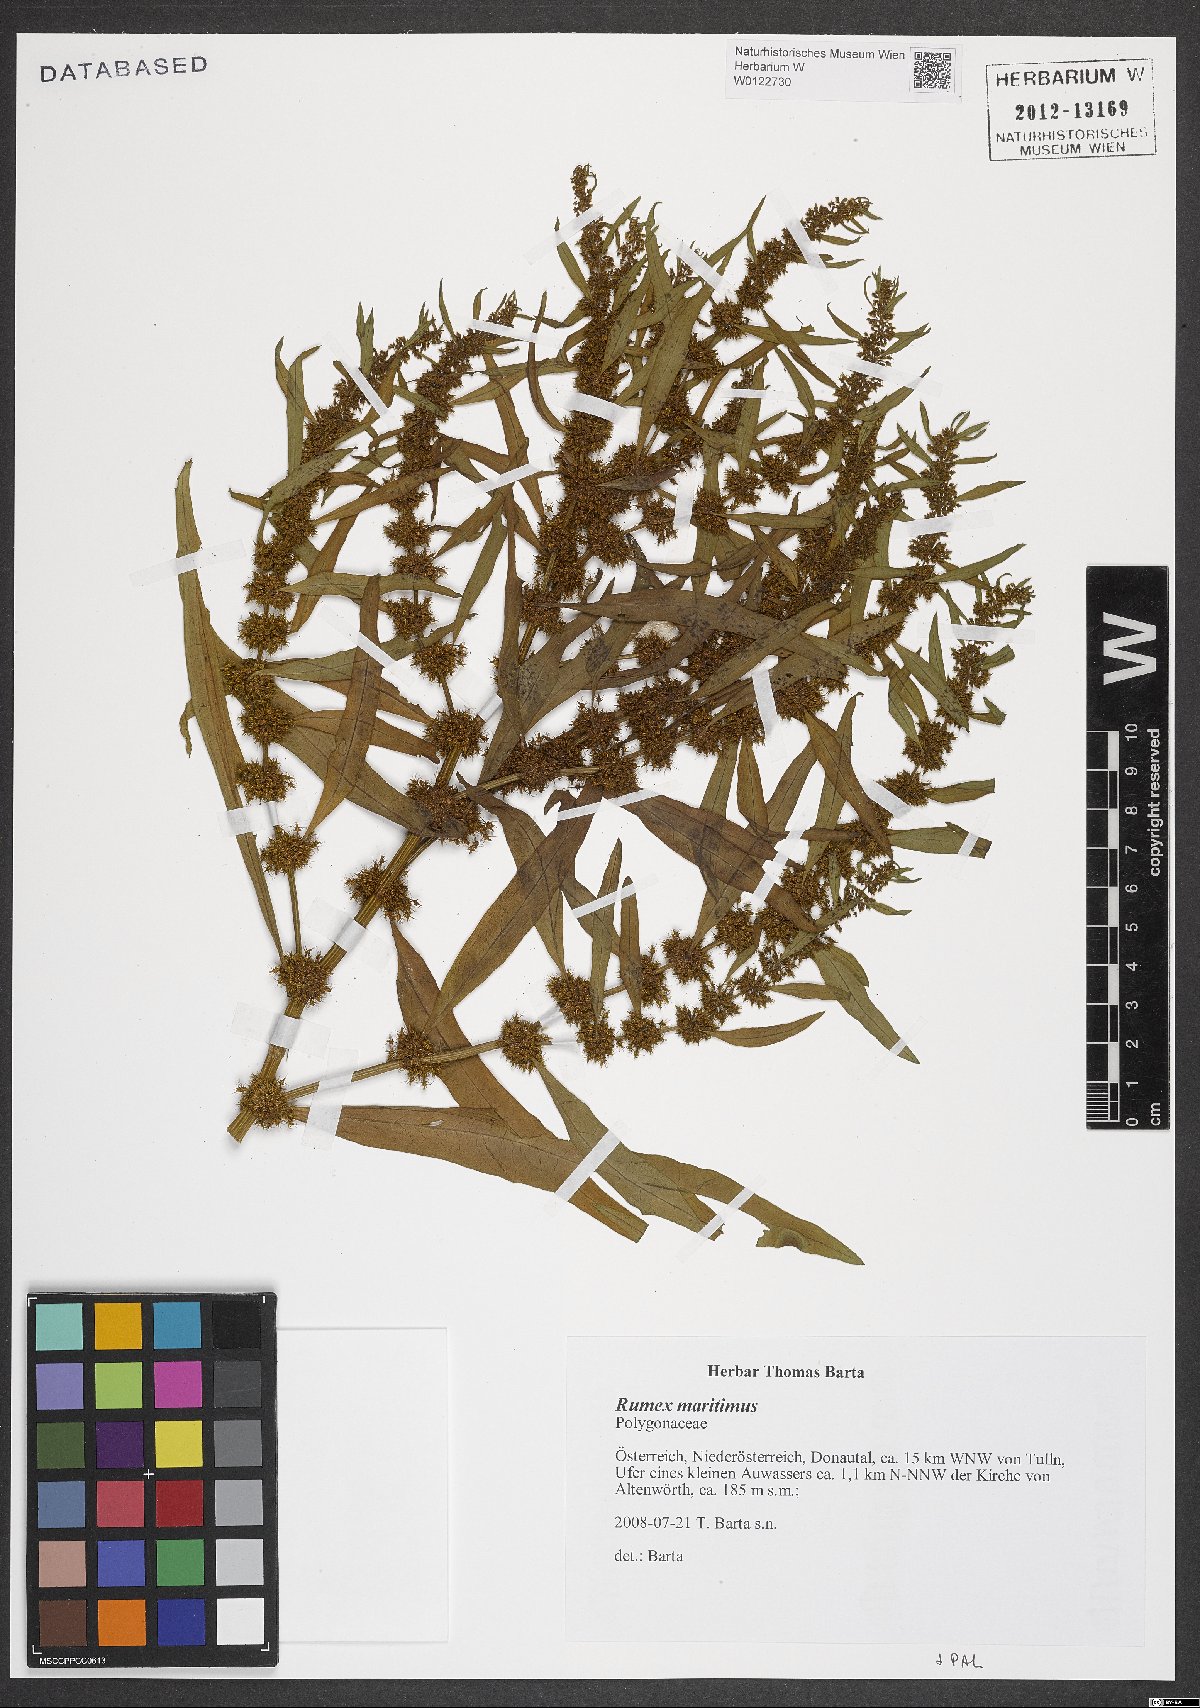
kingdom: Plantae
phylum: Tracheophyta
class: Magnoliopsida
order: Caryophyllales
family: Polygonaceae
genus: Rumex
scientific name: Rumex maritimus
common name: Golden dock
